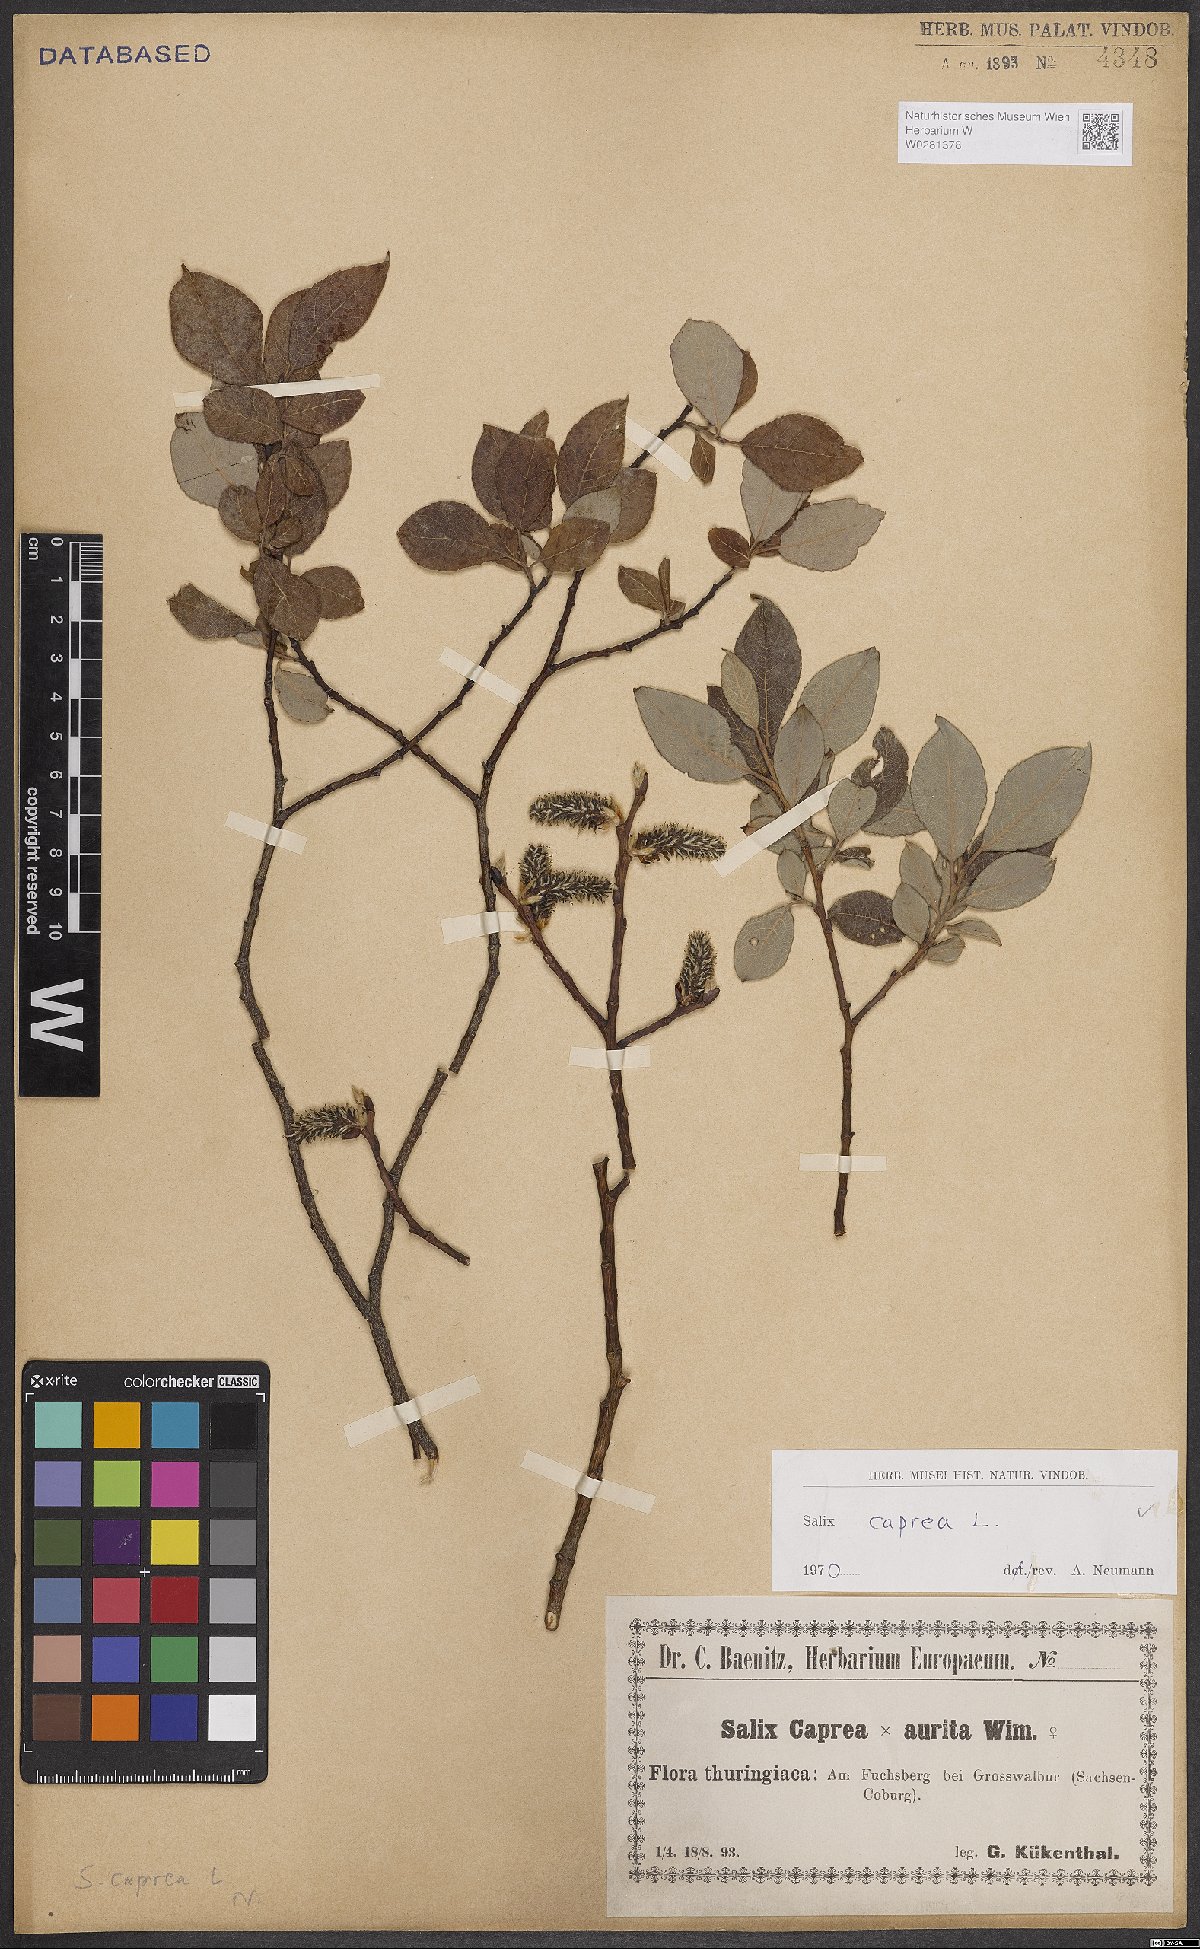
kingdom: Plantae
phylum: Tracheophyta
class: Magnoliopsida
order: Malpighiales
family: Salicaceae
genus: Salix
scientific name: Salix caprea
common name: Goat willow
